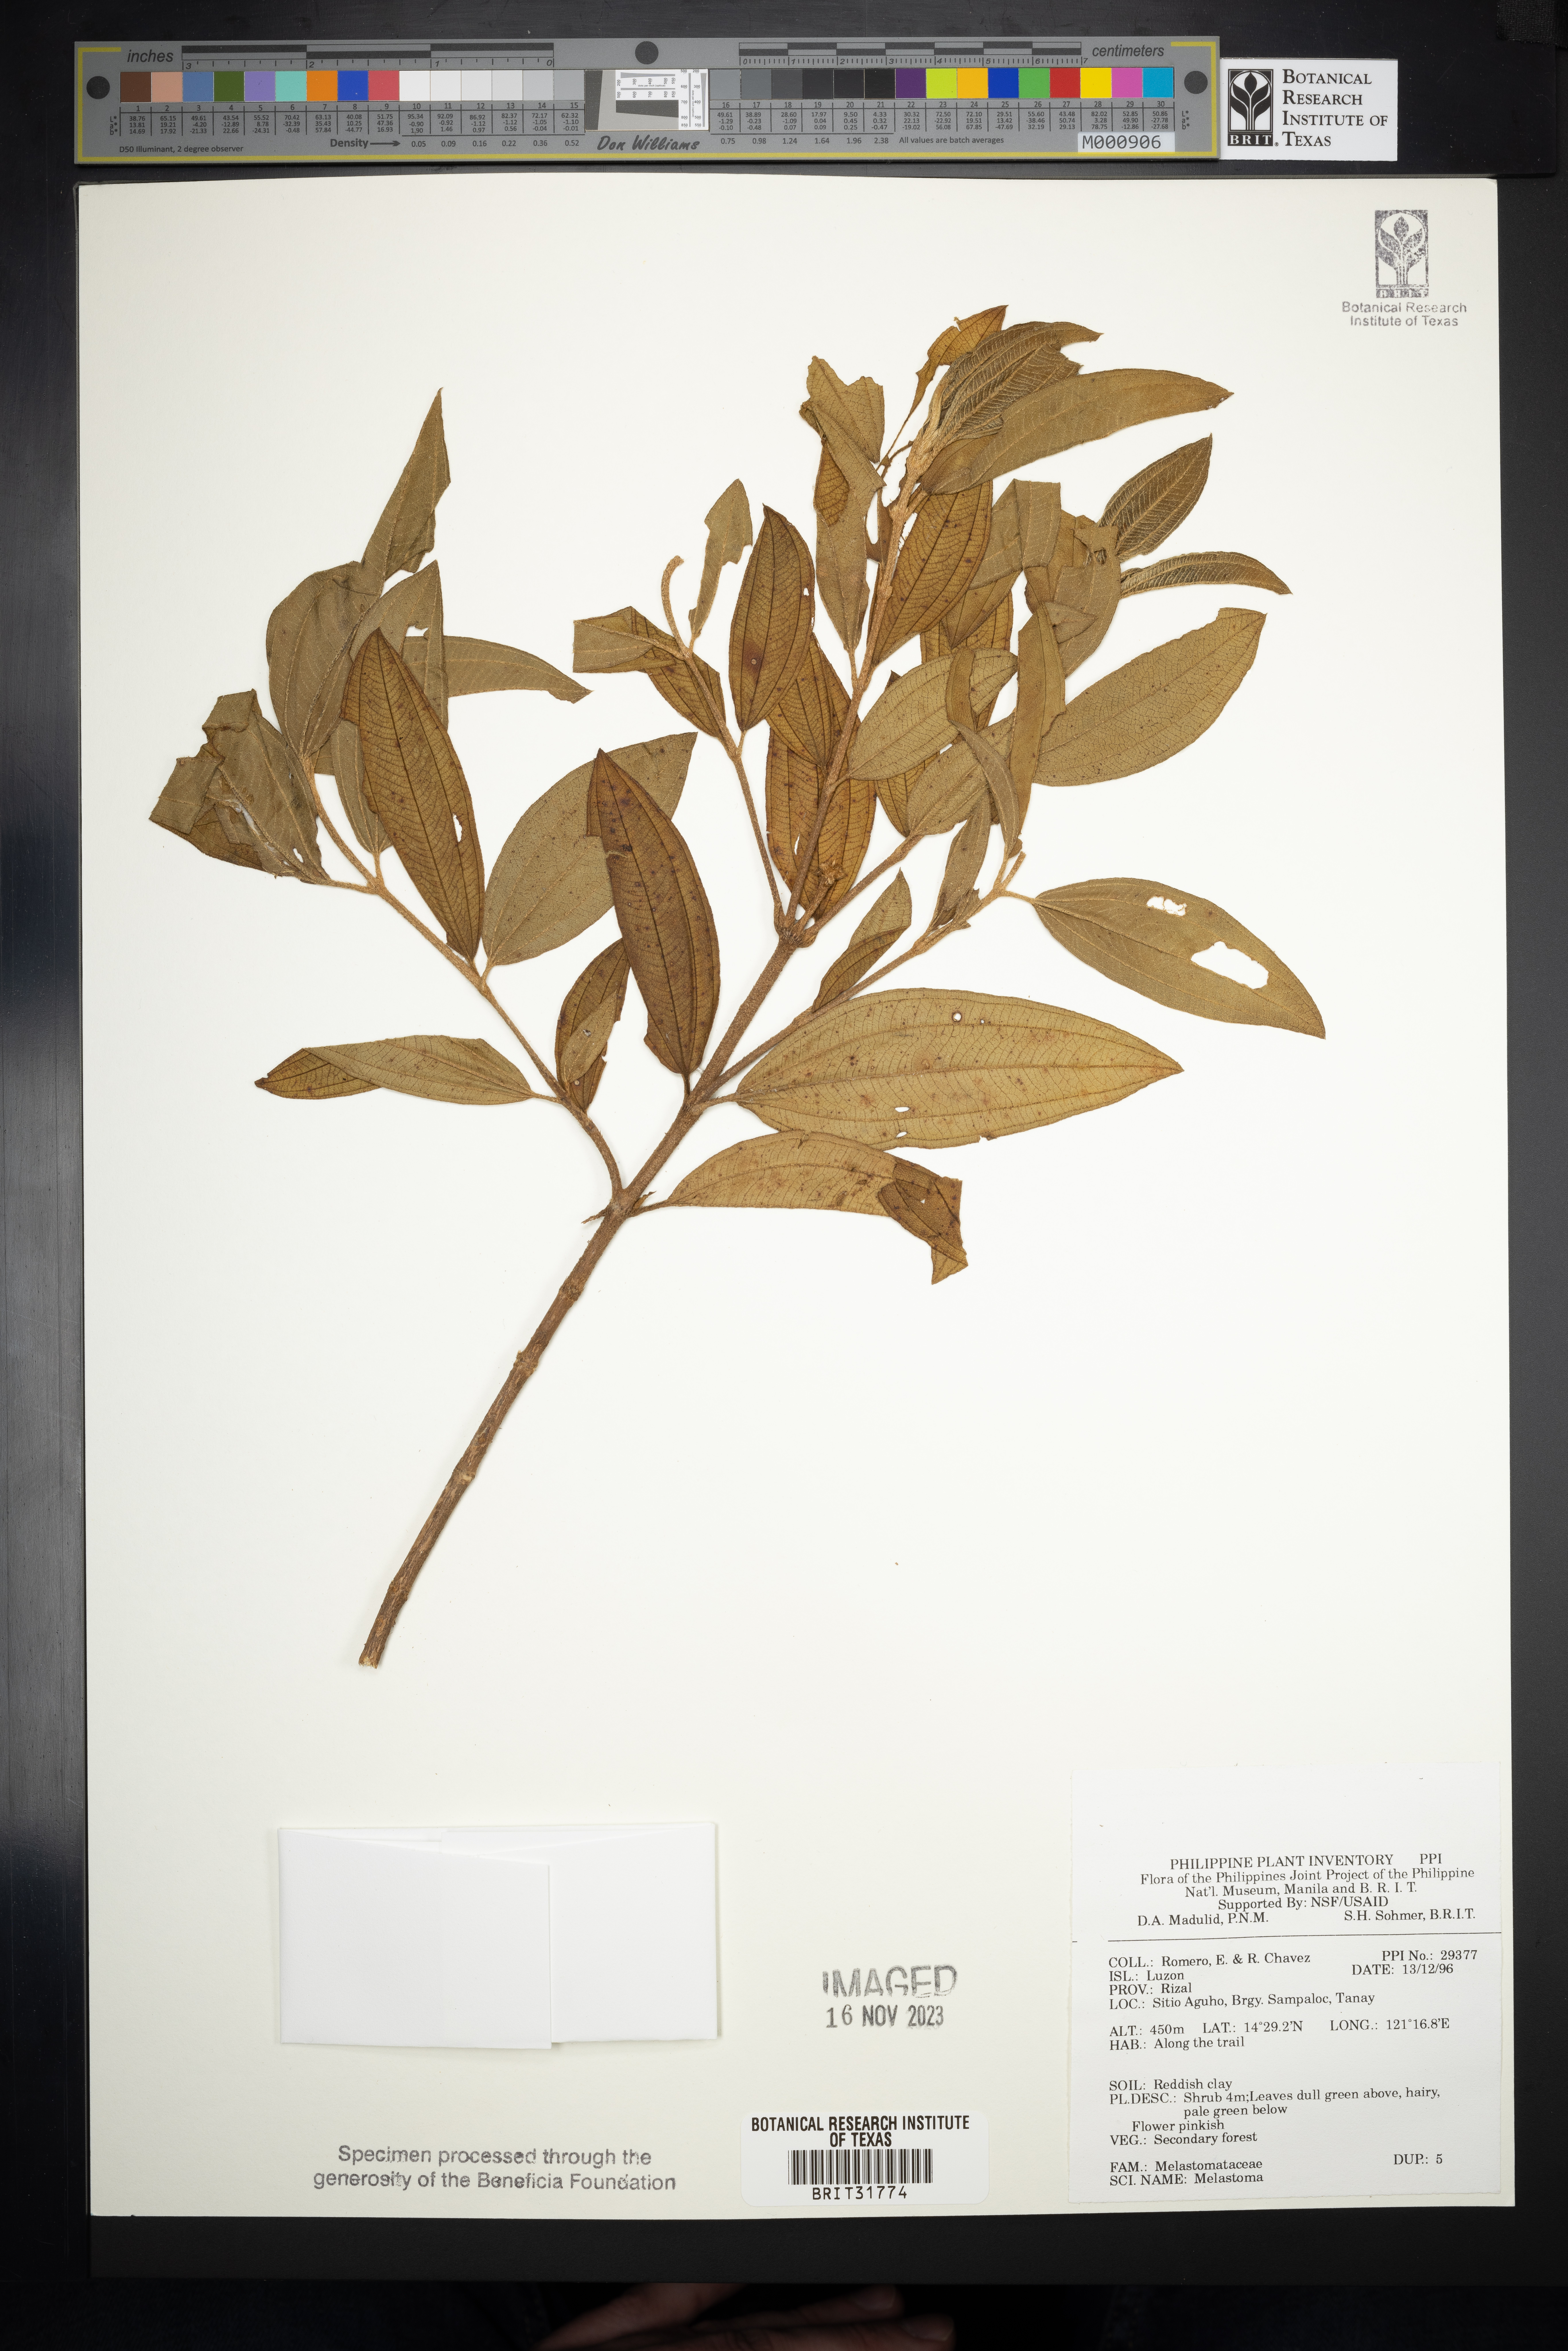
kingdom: Plantae
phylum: Tracheophyta
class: Magnoliopsida
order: Myrtales
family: Melastomataceae
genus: Melastoma
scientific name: Melastoma
